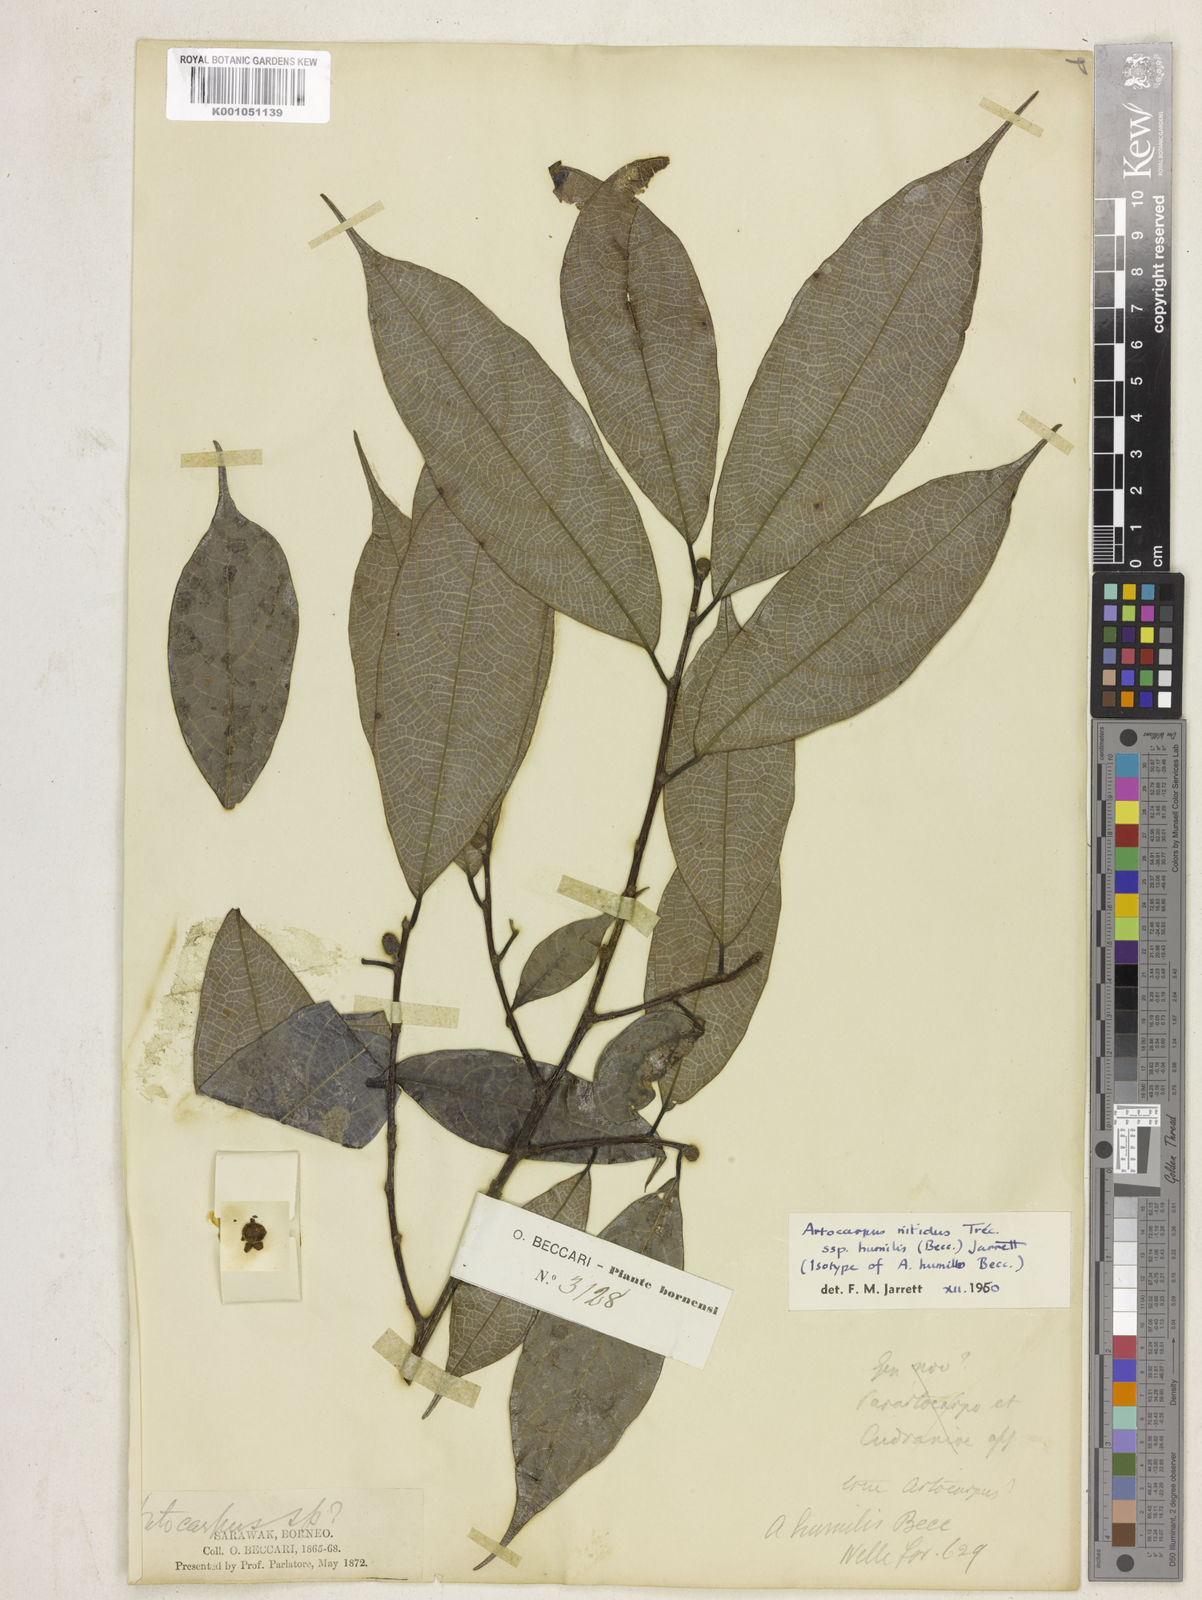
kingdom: Plantae
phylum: Tracheophyta
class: Magnoliopsida
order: Rosales
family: Moraceae
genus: Artocarpus
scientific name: Artocarpus
